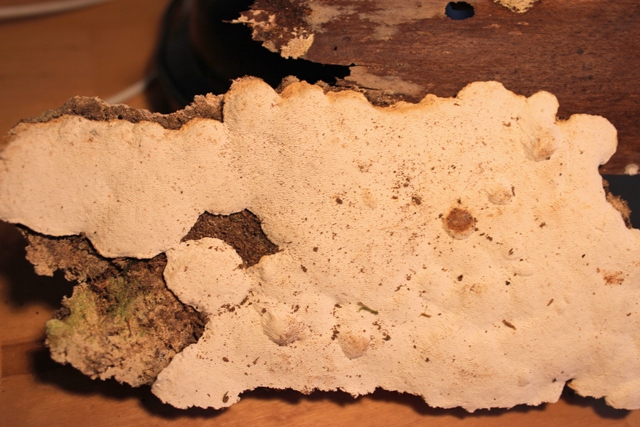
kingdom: Fungi
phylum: Basidiomycota
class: Agaricomycetes
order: Polyporales
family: Fomitopsidaceae
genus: Neoantrodia
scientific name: Neoantrodia serialis
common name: række-sejporesvamp
